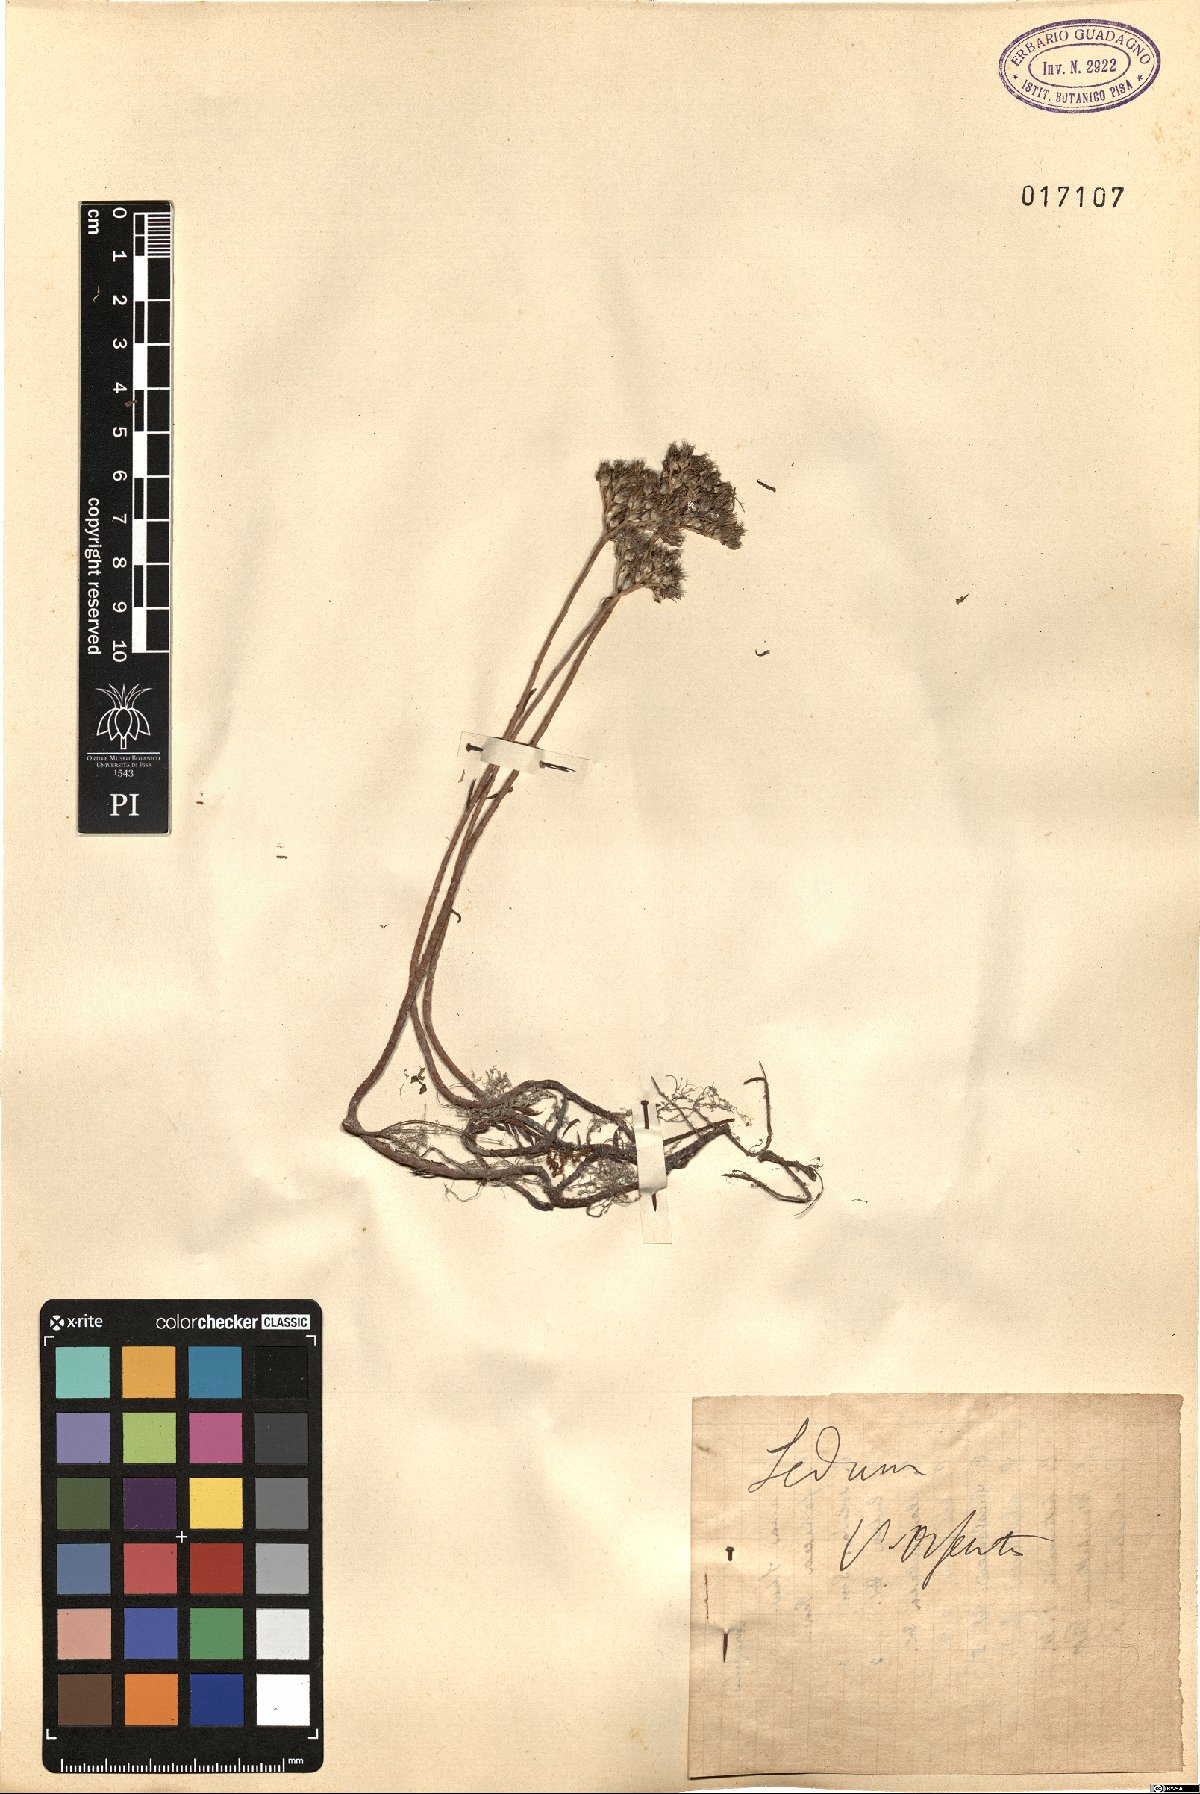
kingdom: Plantae
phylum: Tracheophyta
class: Magnoliopsida
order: Saxifragales
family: Crassulaceae
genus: Sedum
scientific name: Sedum
